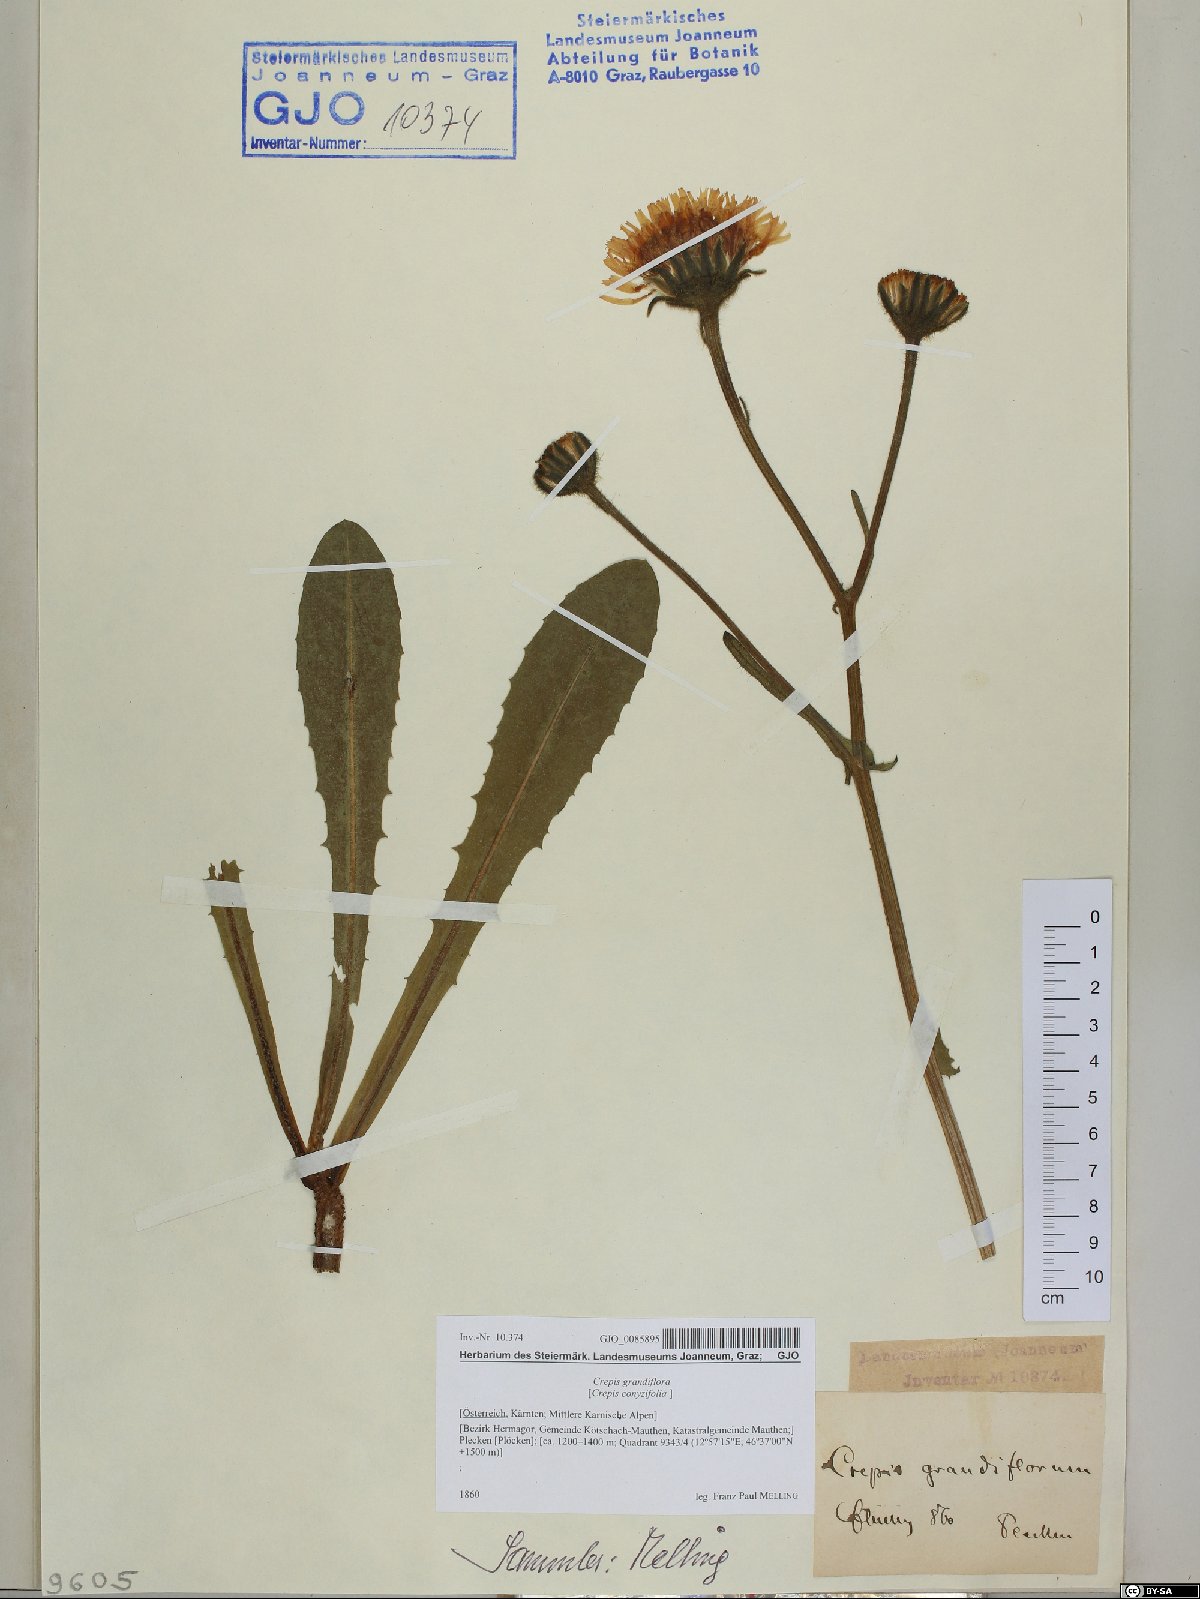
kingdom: Plantae
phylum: Tracheophyta
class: Magnoliopsida
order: Asterales
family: Asteraceae
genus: Crepis
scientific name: Crepis pyrenaica
